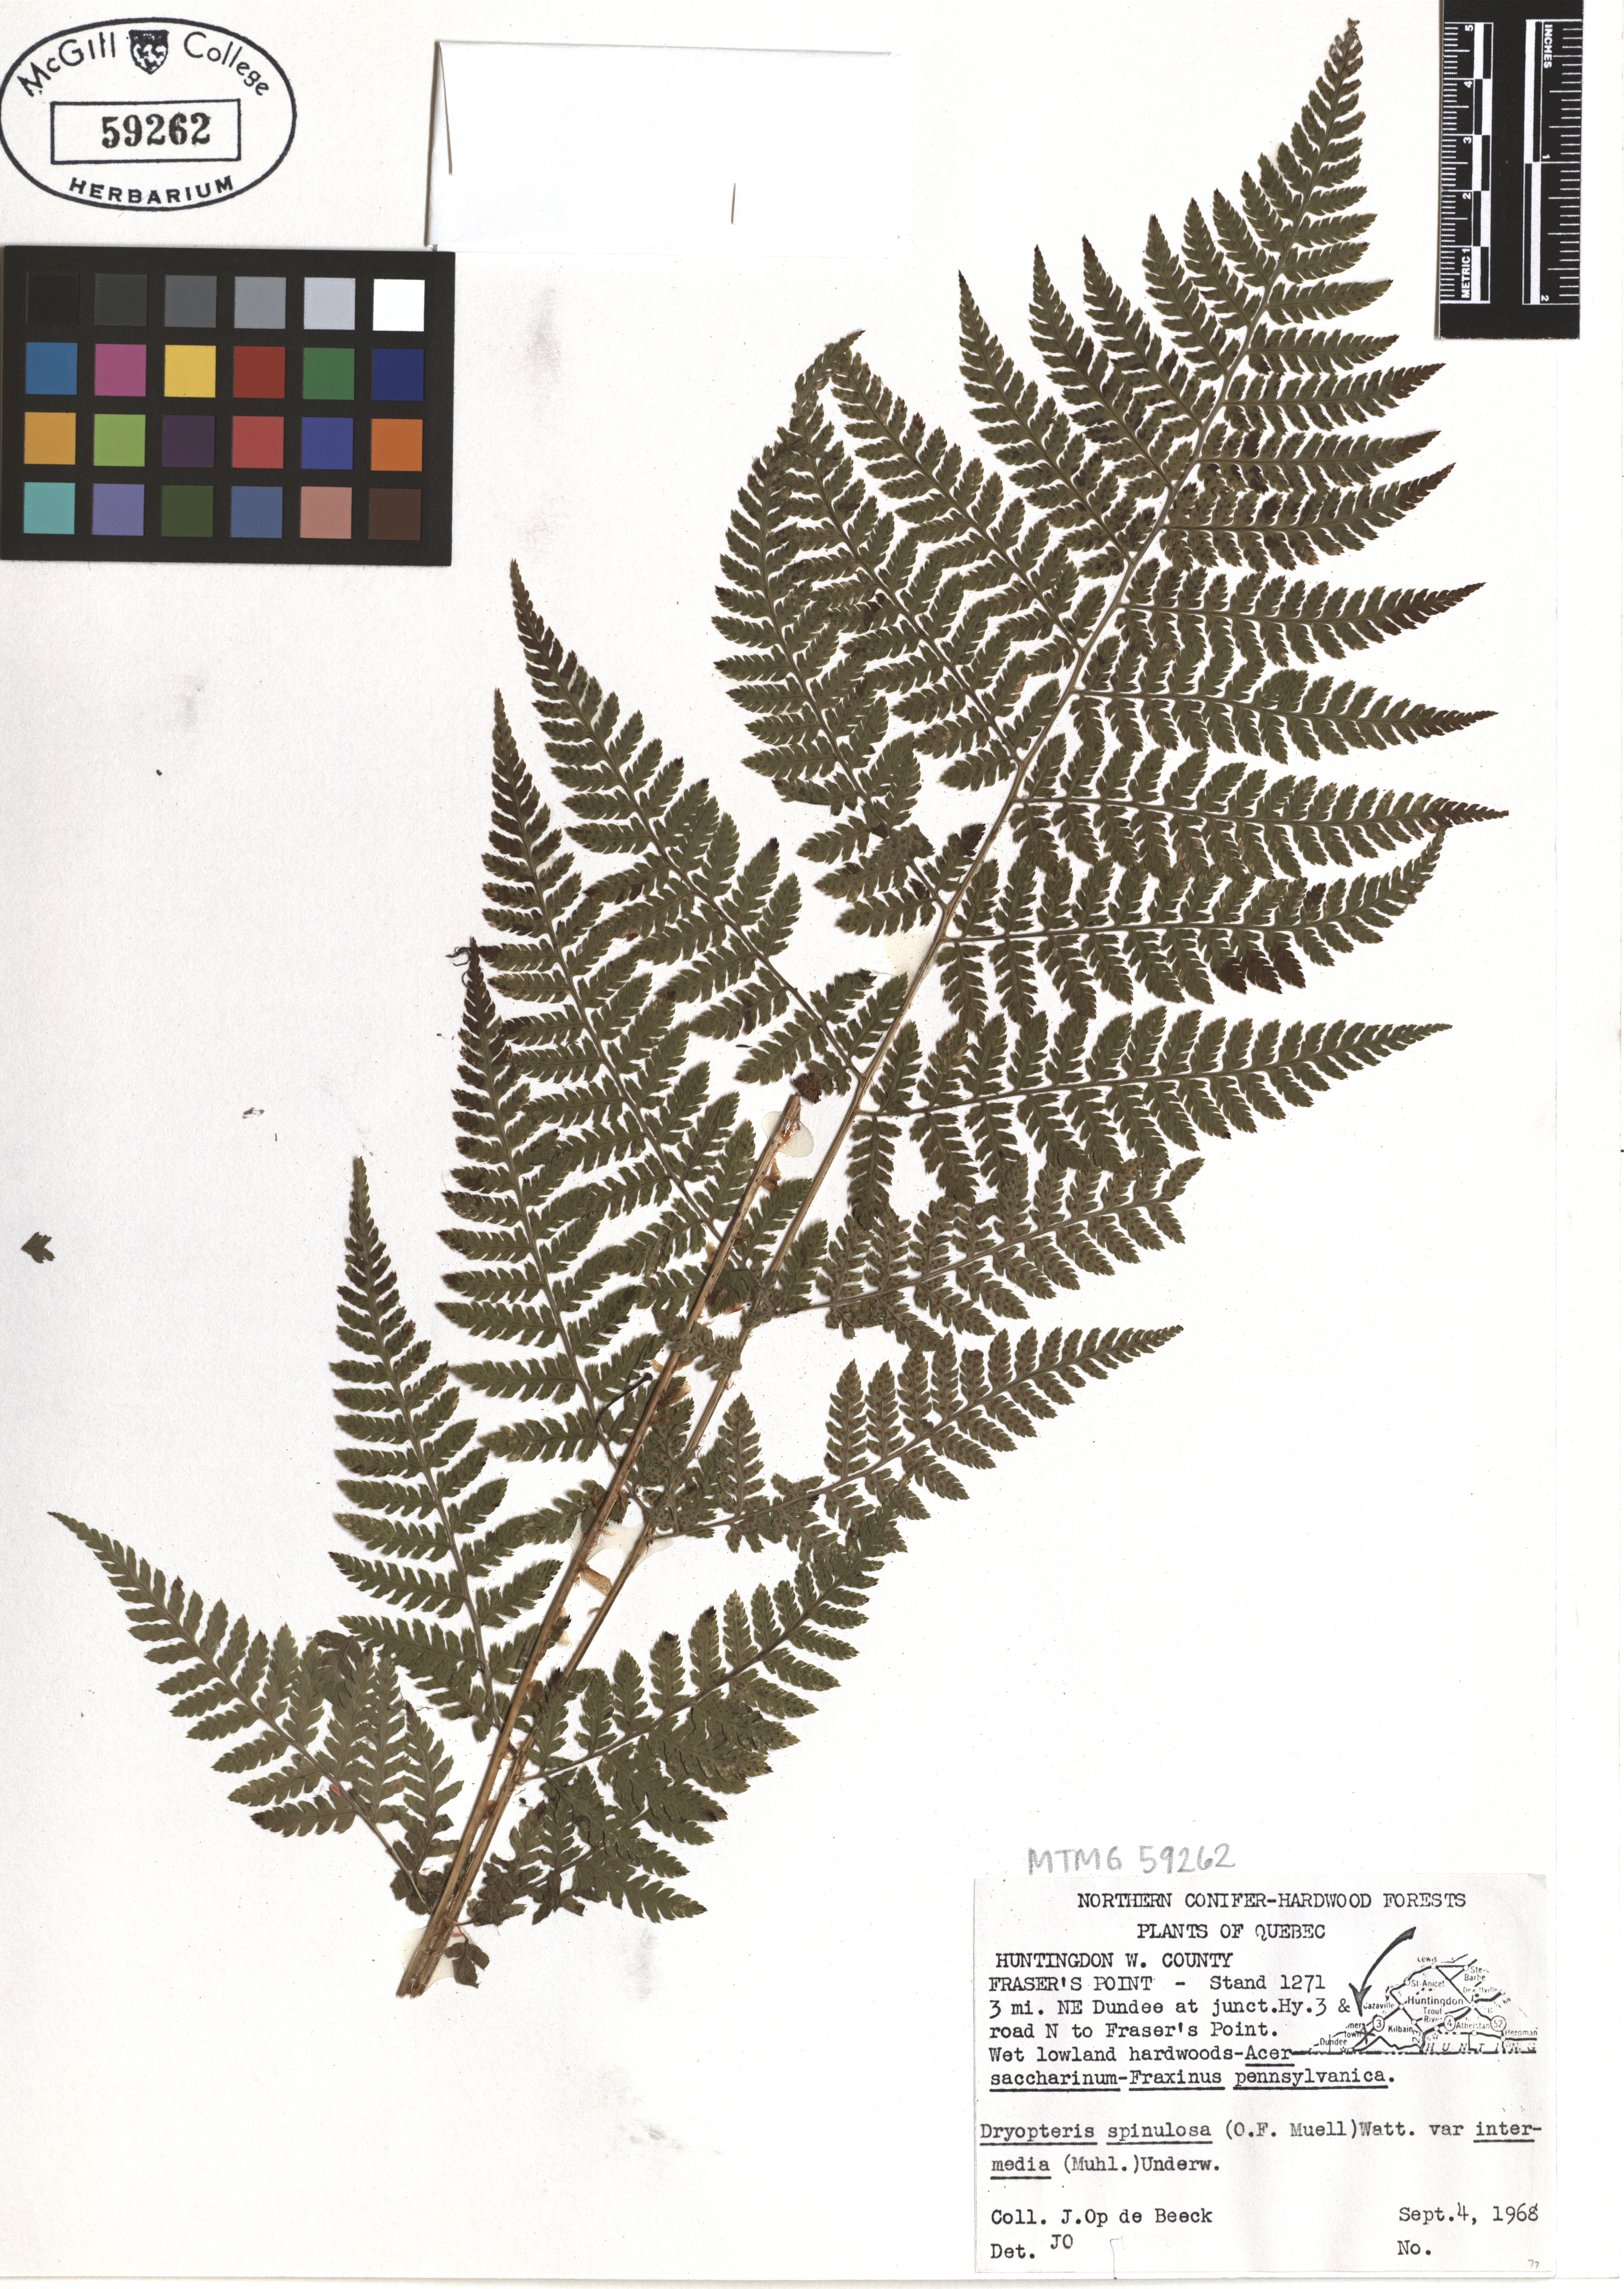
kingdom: Plantae
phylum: Tracheophyta
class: Polypodiopsida
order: Polypodiales
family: Dryopteridaceae
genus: Dryopteris
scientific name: Dryopteris intermedia
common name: Evergreen wood fern
